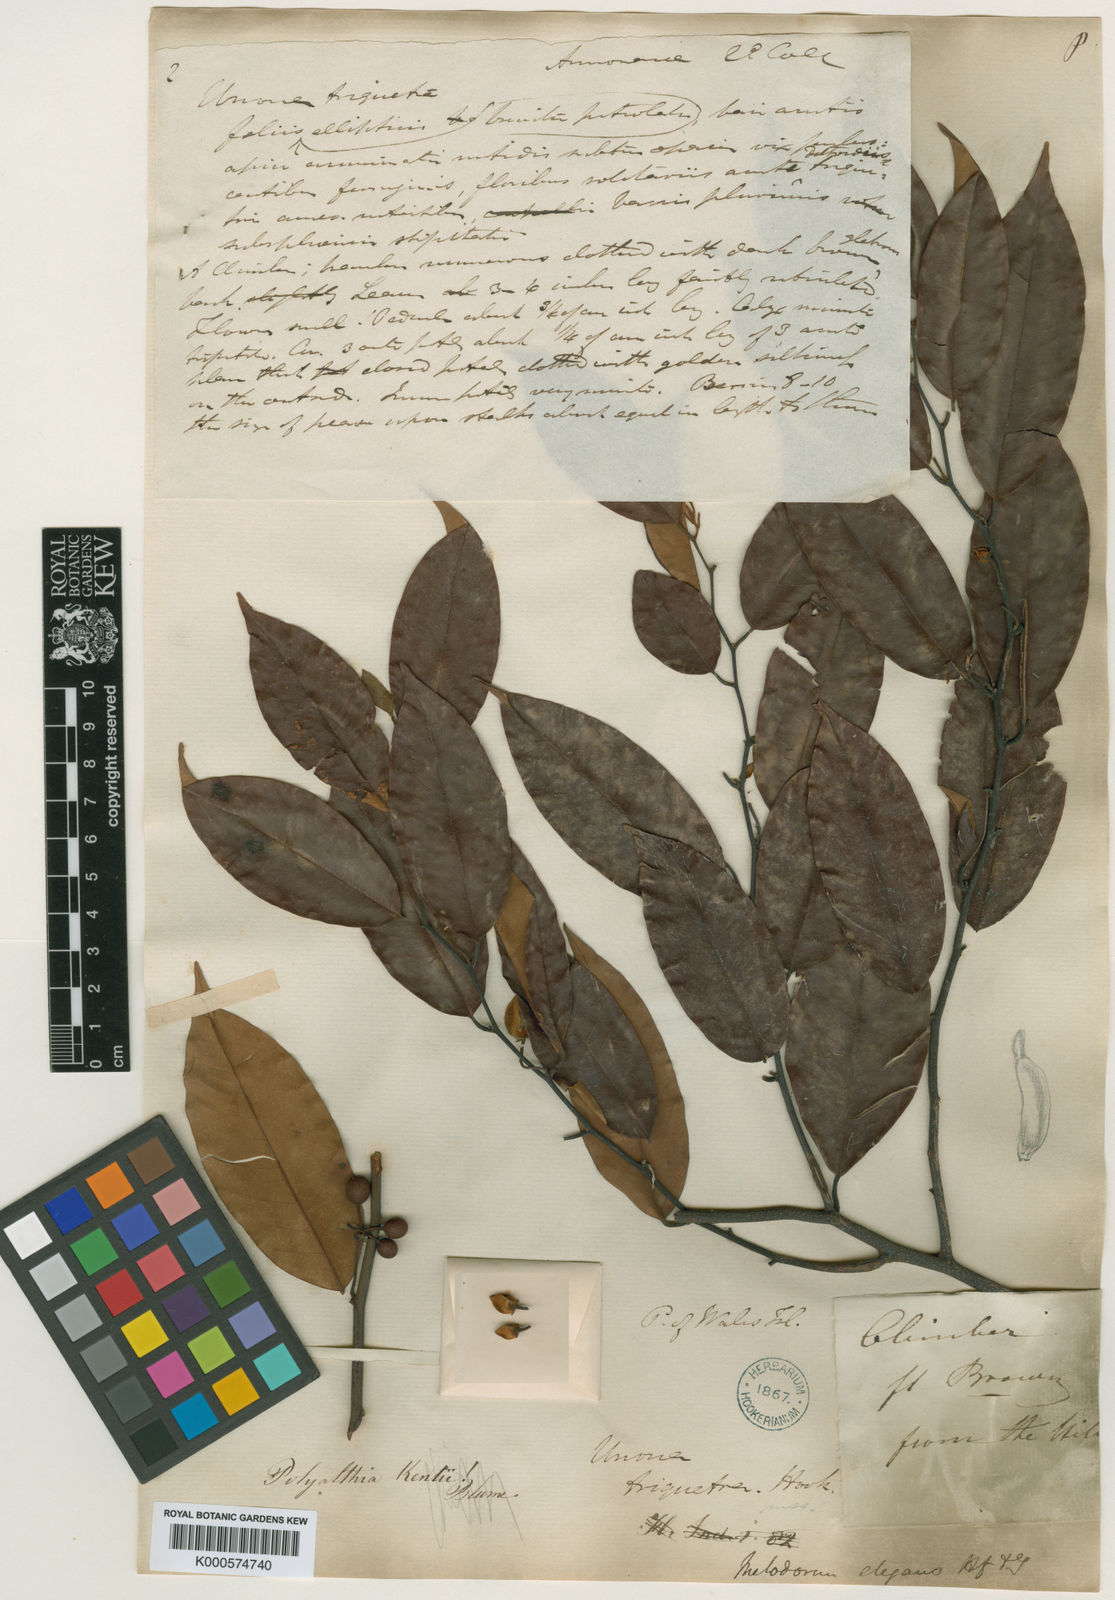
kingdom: Plantae
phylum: Tracheophyta
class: Magnoliopsida
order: Magnoliales
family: Annonaceae
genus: Mitrella
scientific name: Mitrella kentii
